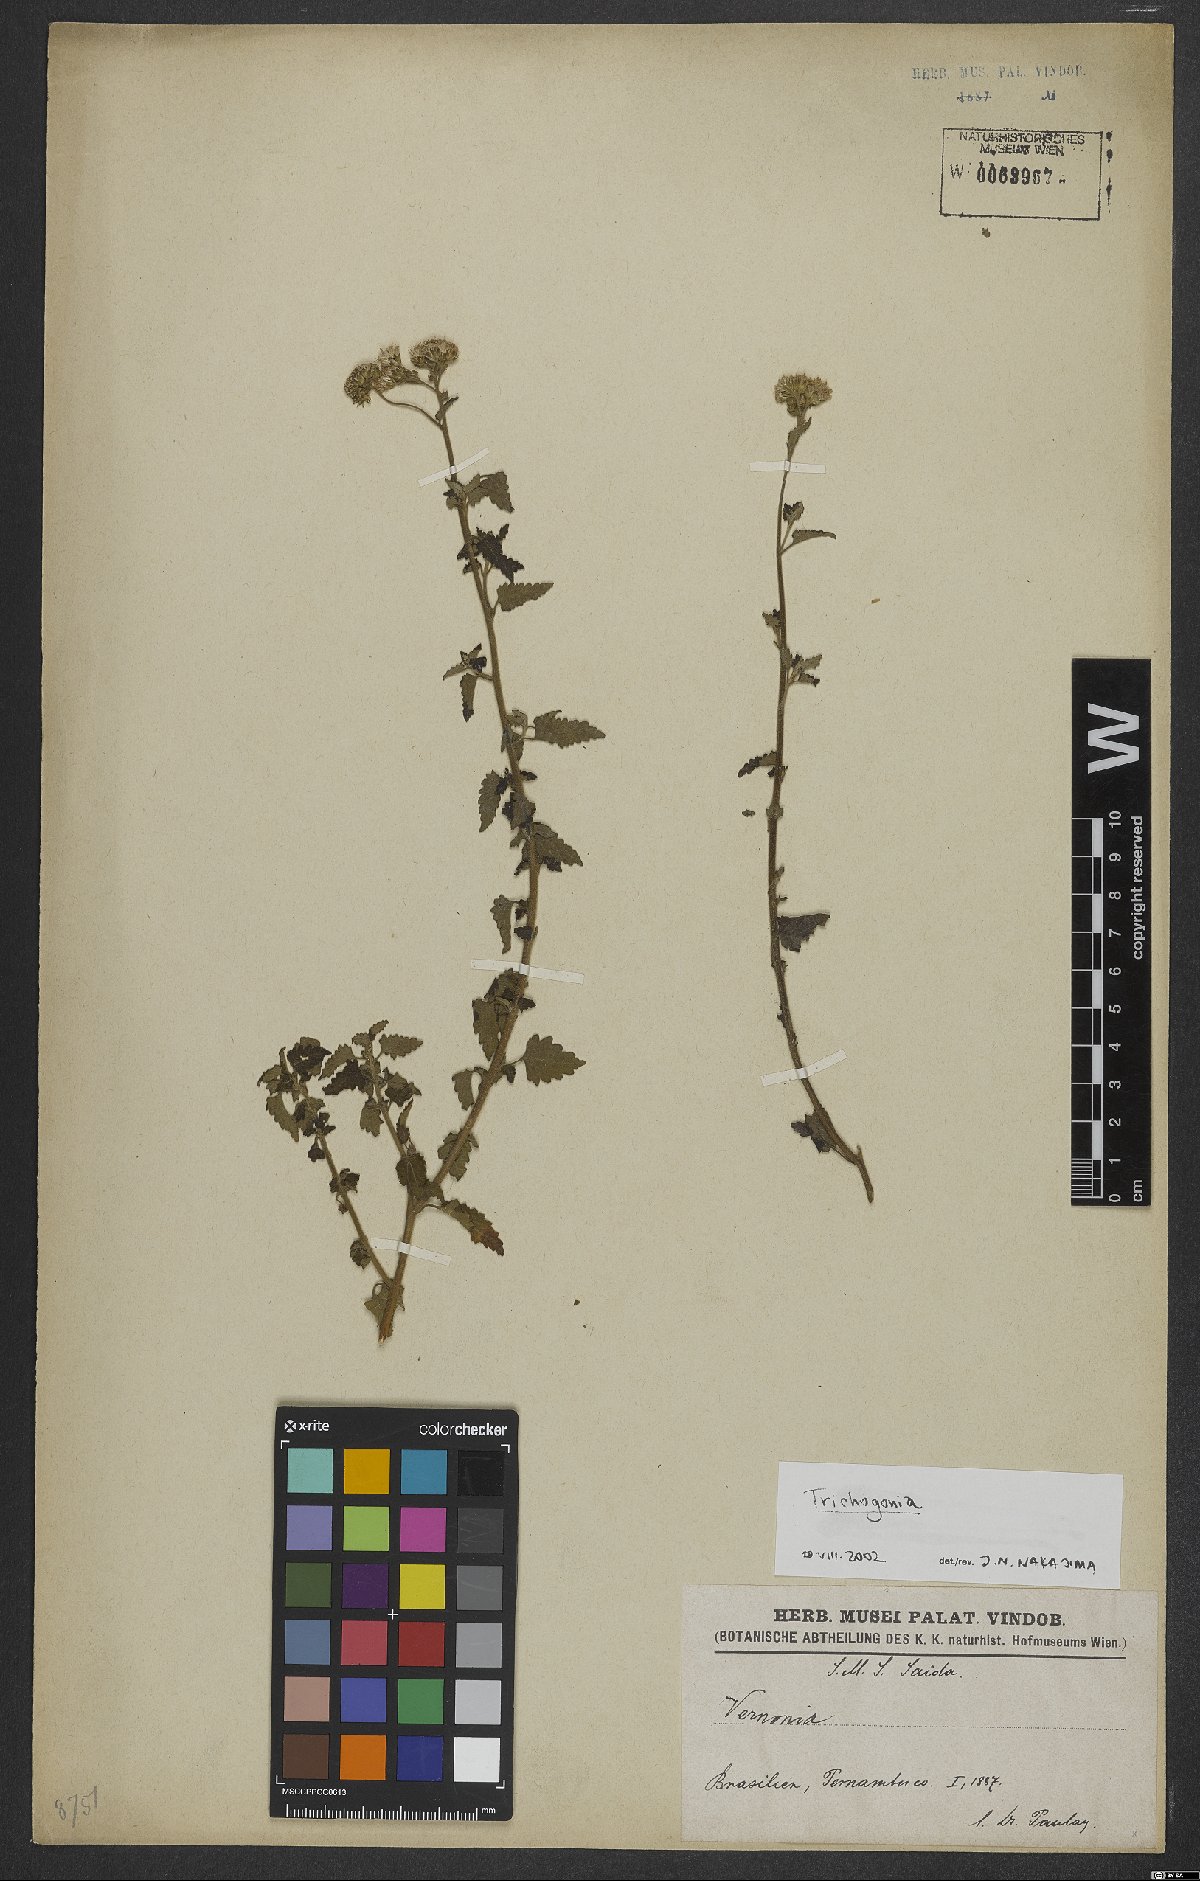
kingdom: Plantae
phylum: Tracheophyta
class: Magnoliopsida
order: Asterales
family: Asteraceae
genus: Trichogonia
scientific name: Trichogonia
